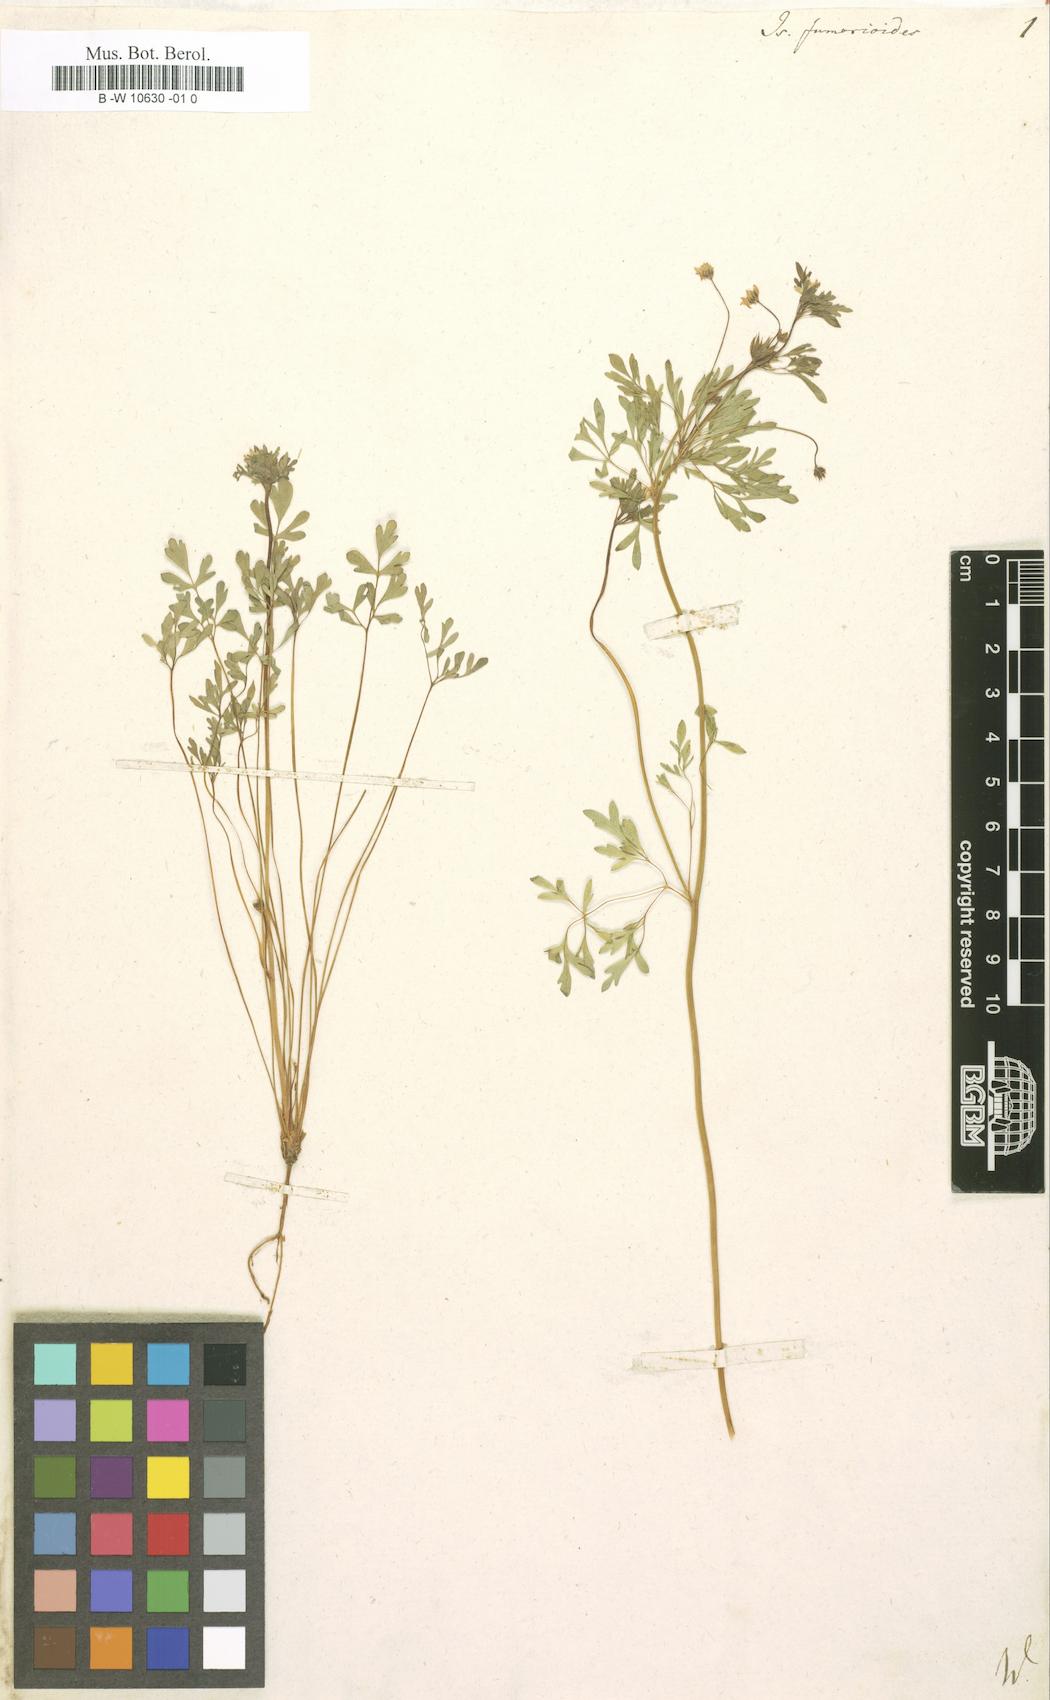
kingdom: Plantae
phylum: Tracheophyta
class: Magnoliopsida
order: Ranunculales
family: Ranunculaceae
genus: Leptopyrum
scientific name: Leptopyrum fumarioides
